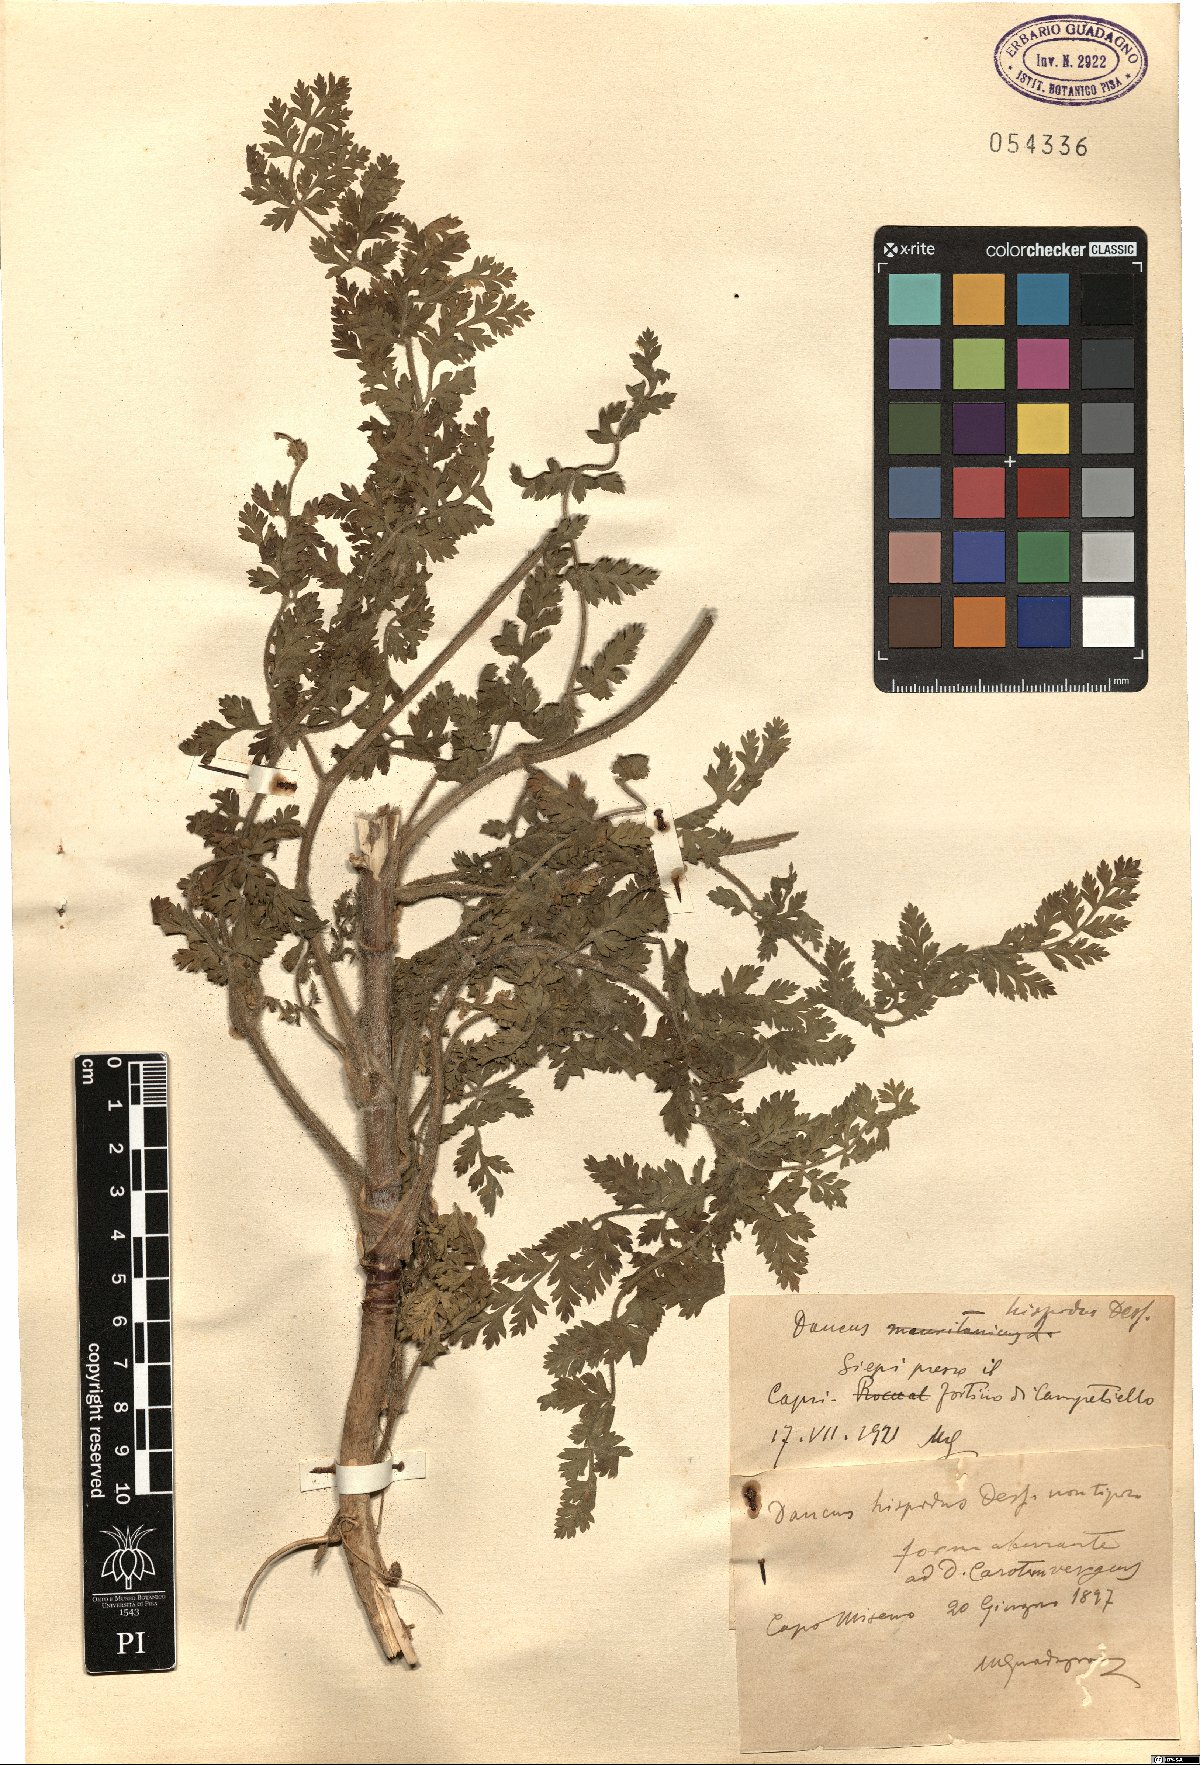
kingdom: Plantae
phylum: Tracheophyta
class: Magnoliopsida
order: Apiales
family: Apiaceae
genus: Daucus
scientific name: Daucus carota
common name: Wild carrot
